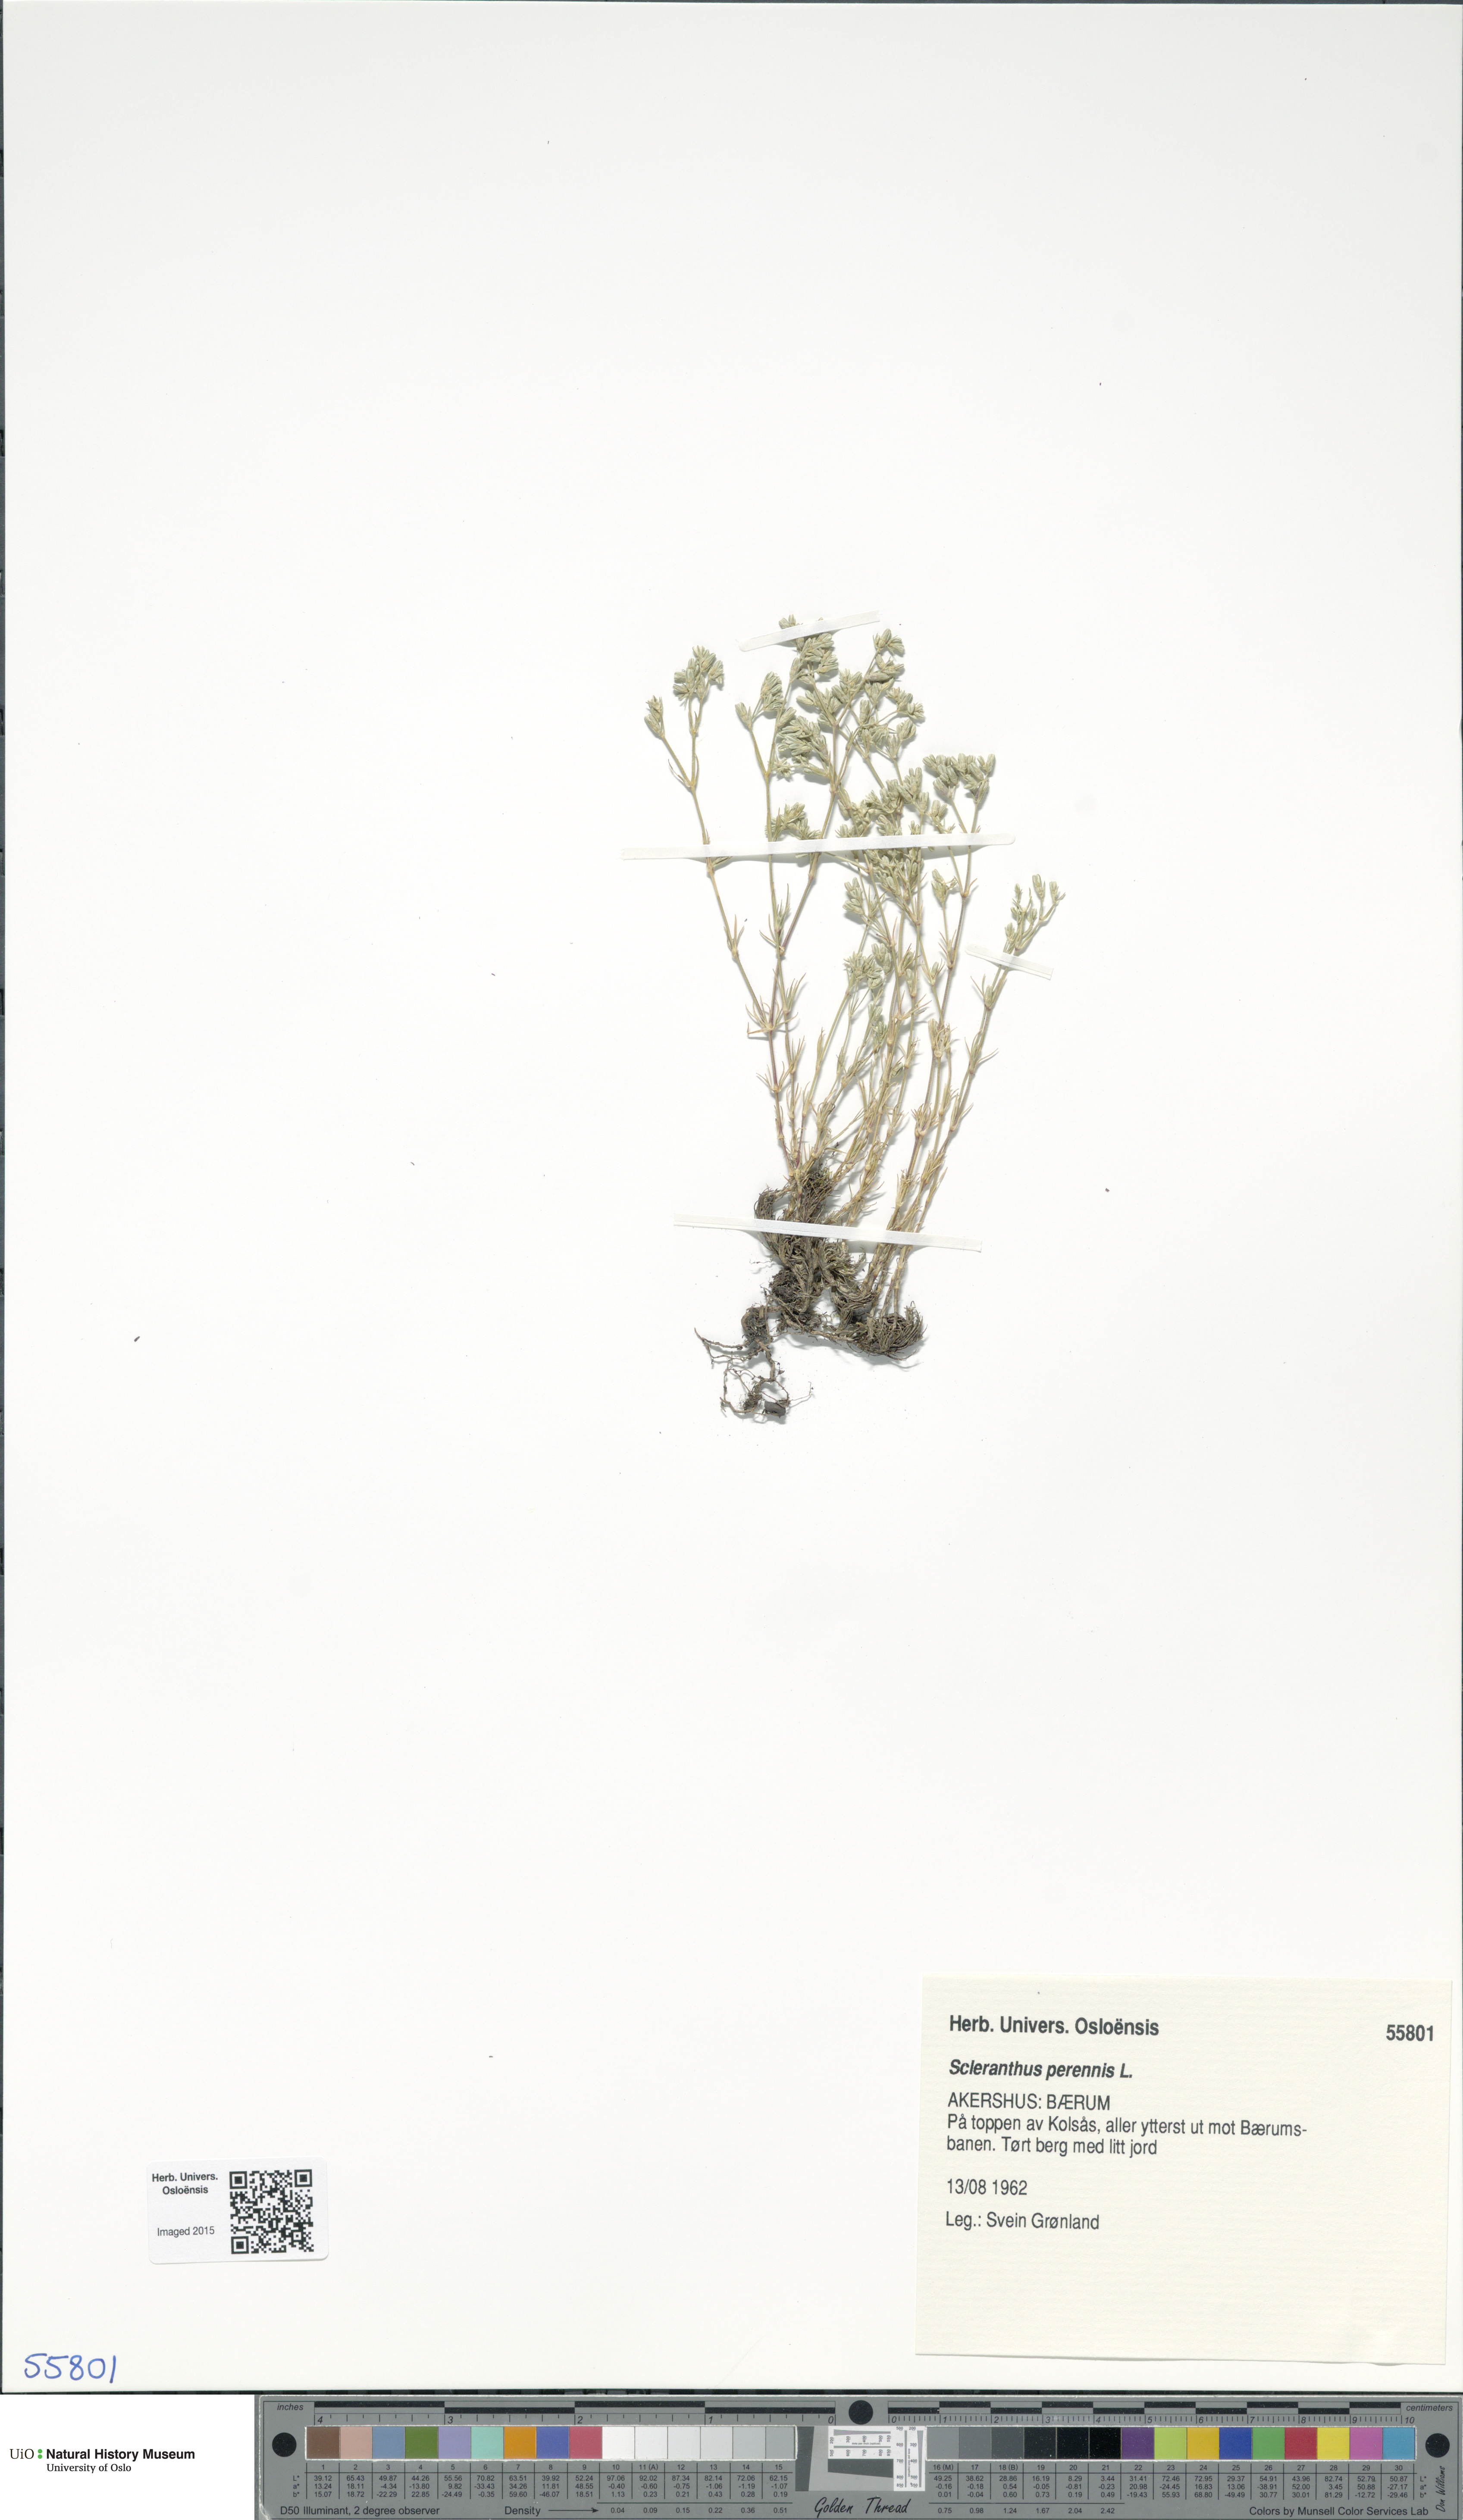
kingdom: Plantae
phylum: Tracheophyta
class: Magnoliopsida
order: Caryophyllales
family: Caryophyllaceae
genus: Scleranthus
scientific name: Scleranthus perennis
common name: Perennial knawel
